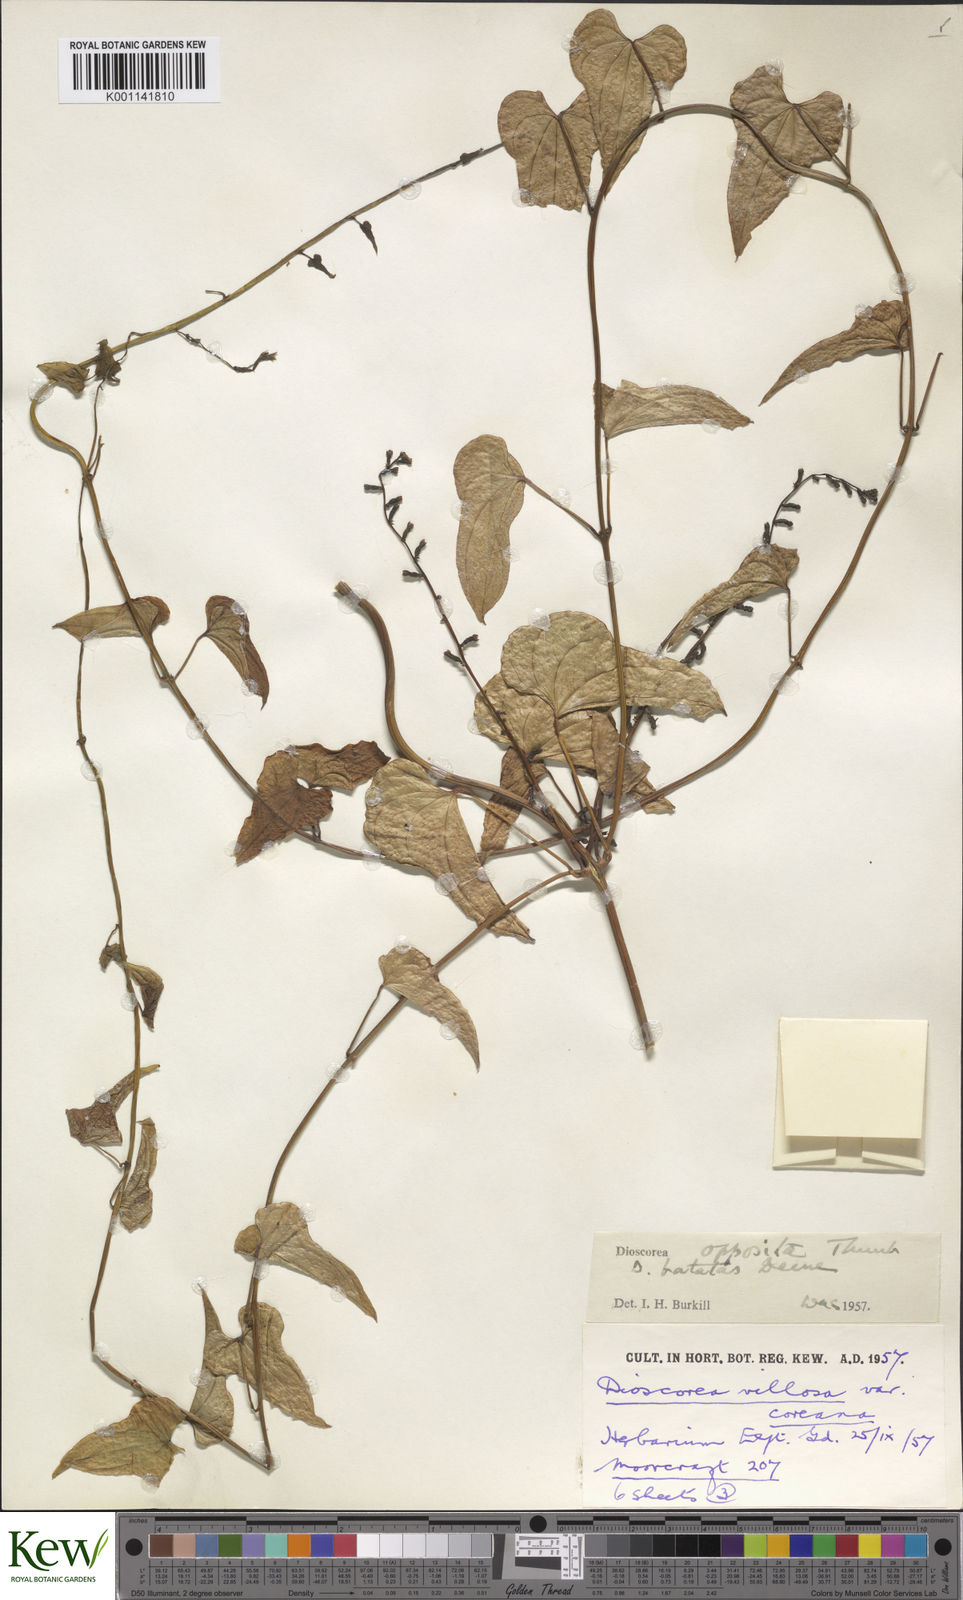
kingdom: Plantae
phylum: Tracheophyta
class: Liliopsida
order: Dioscoreales
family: Dioscoreaceae
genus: Dioscorea
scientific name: Dioscorea oppositifolia
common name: Chinese yam
